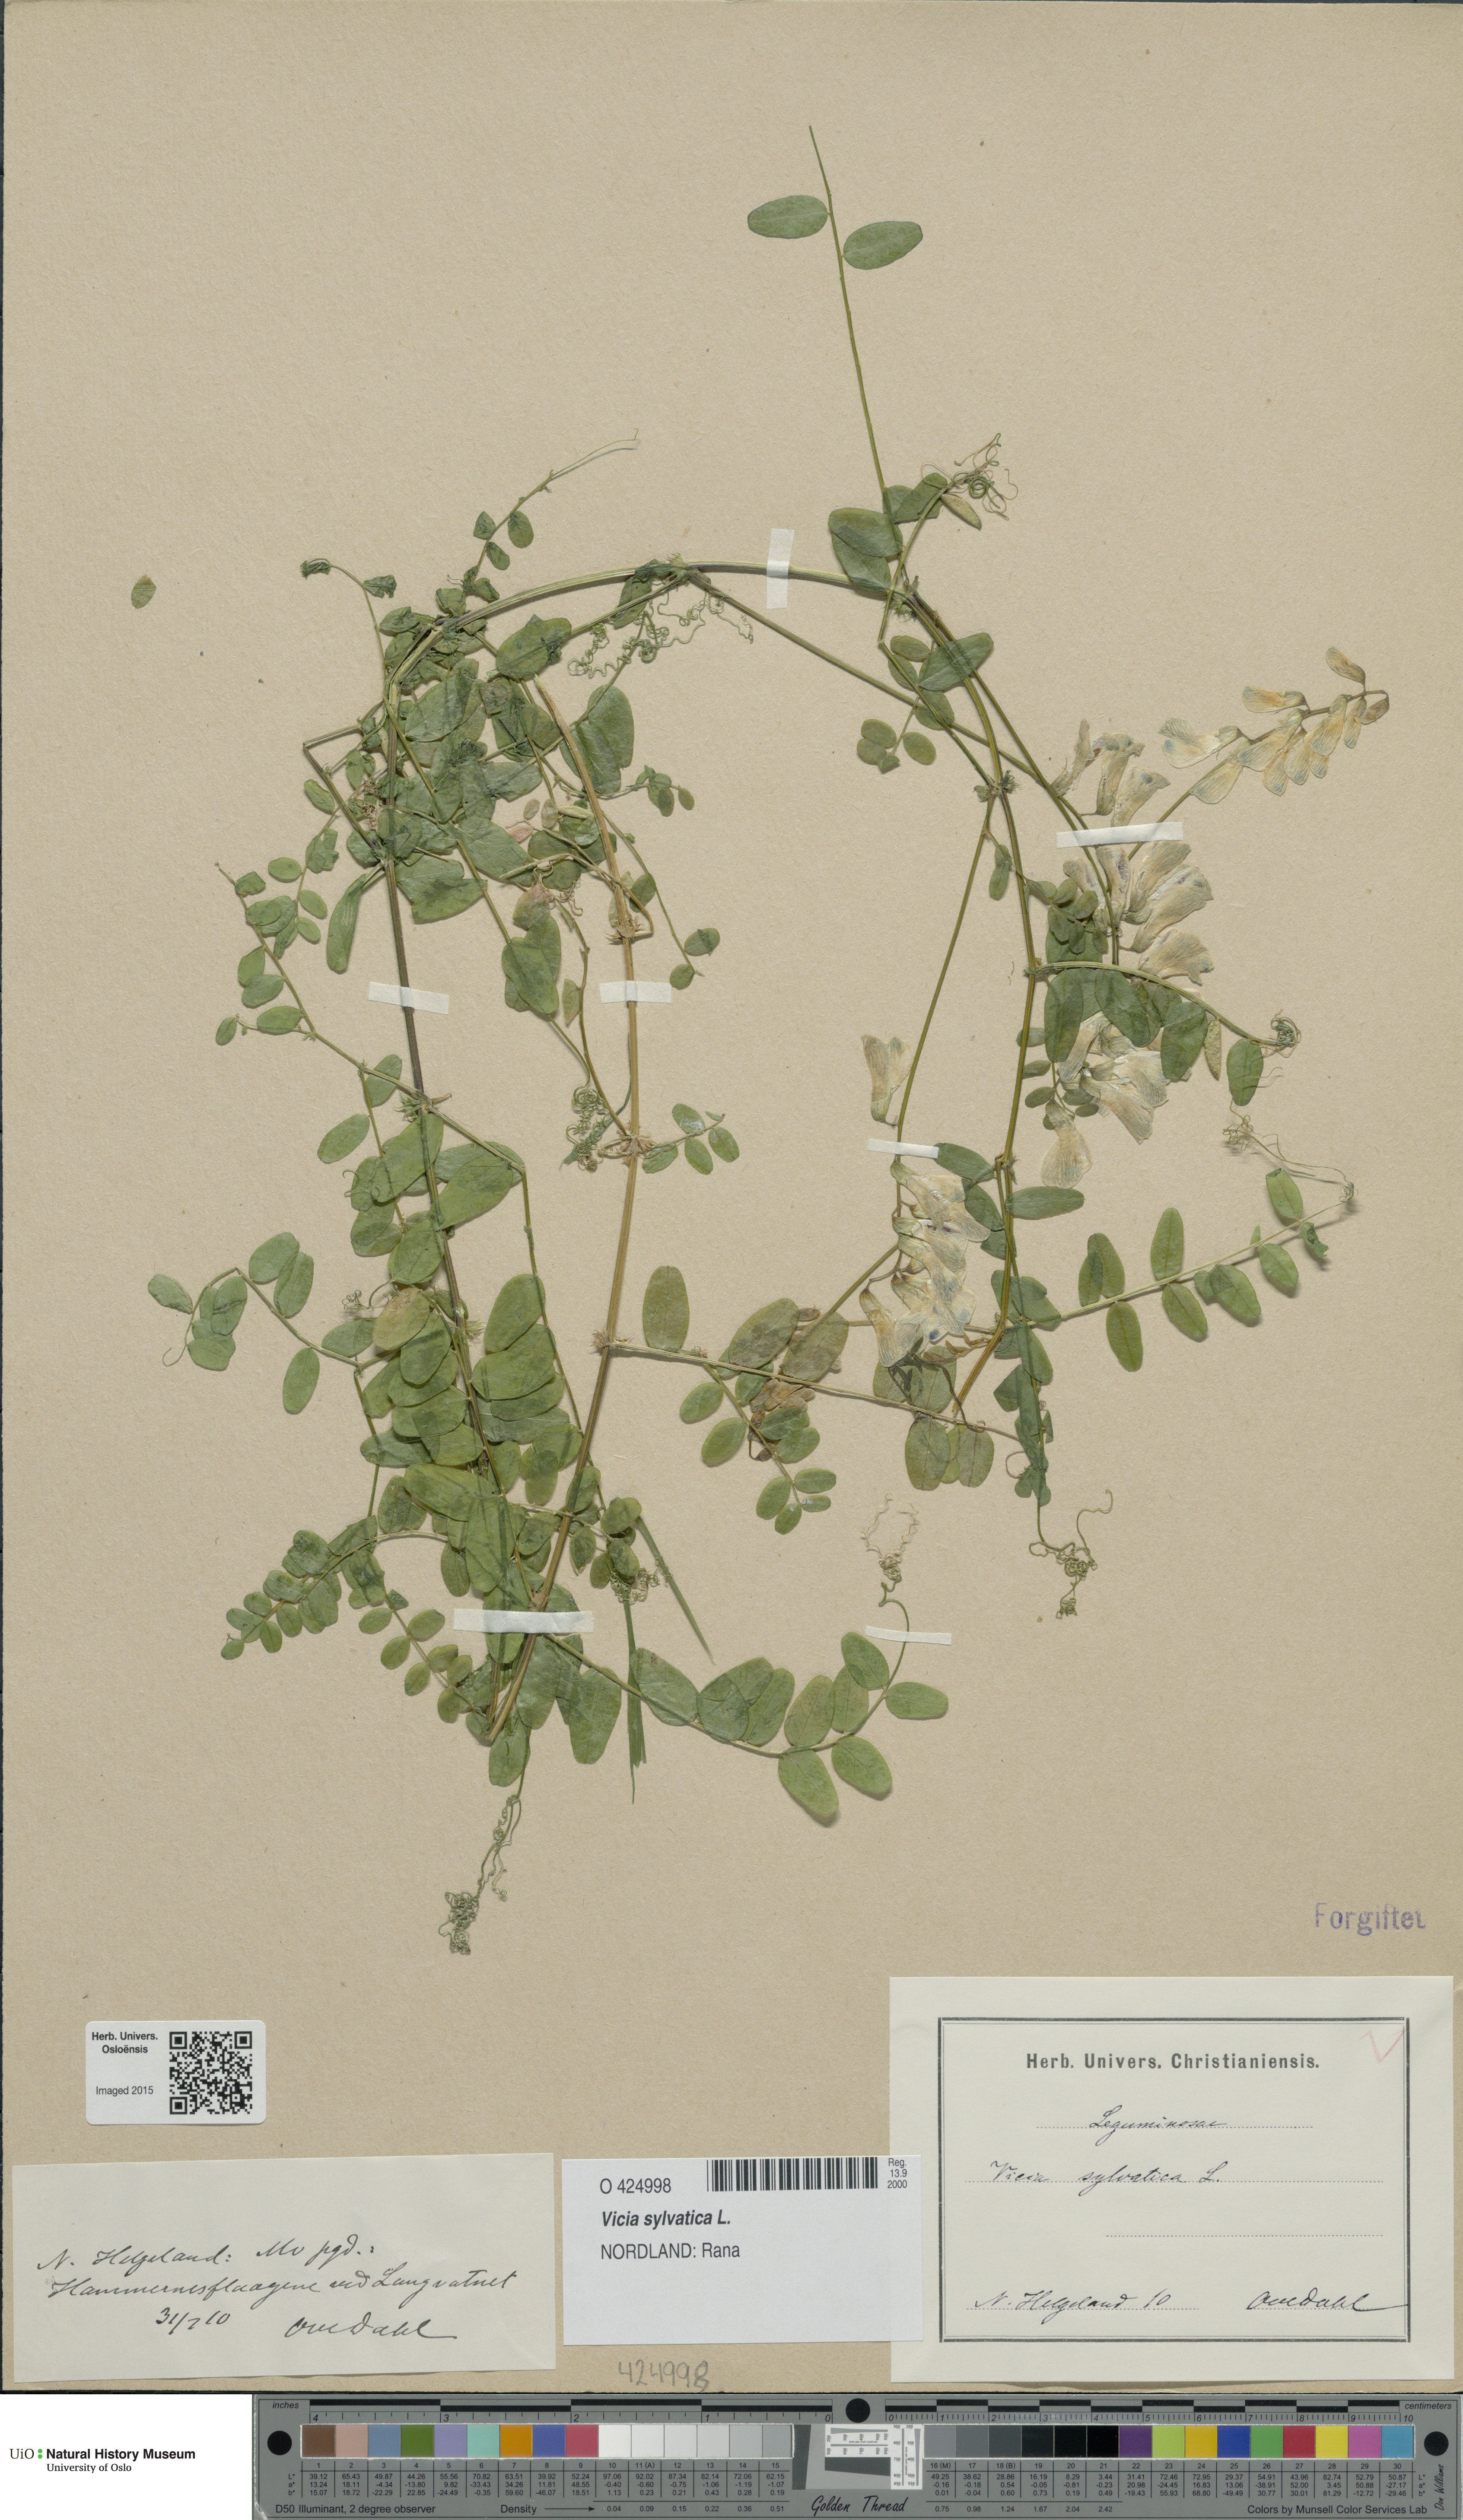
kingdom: Plantae
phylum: Tracheophyta
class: Magnoliopsida
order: Fabales
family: Fabaceae
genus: Vicia
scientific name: Vicia sylvatica
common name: Wood vetch
